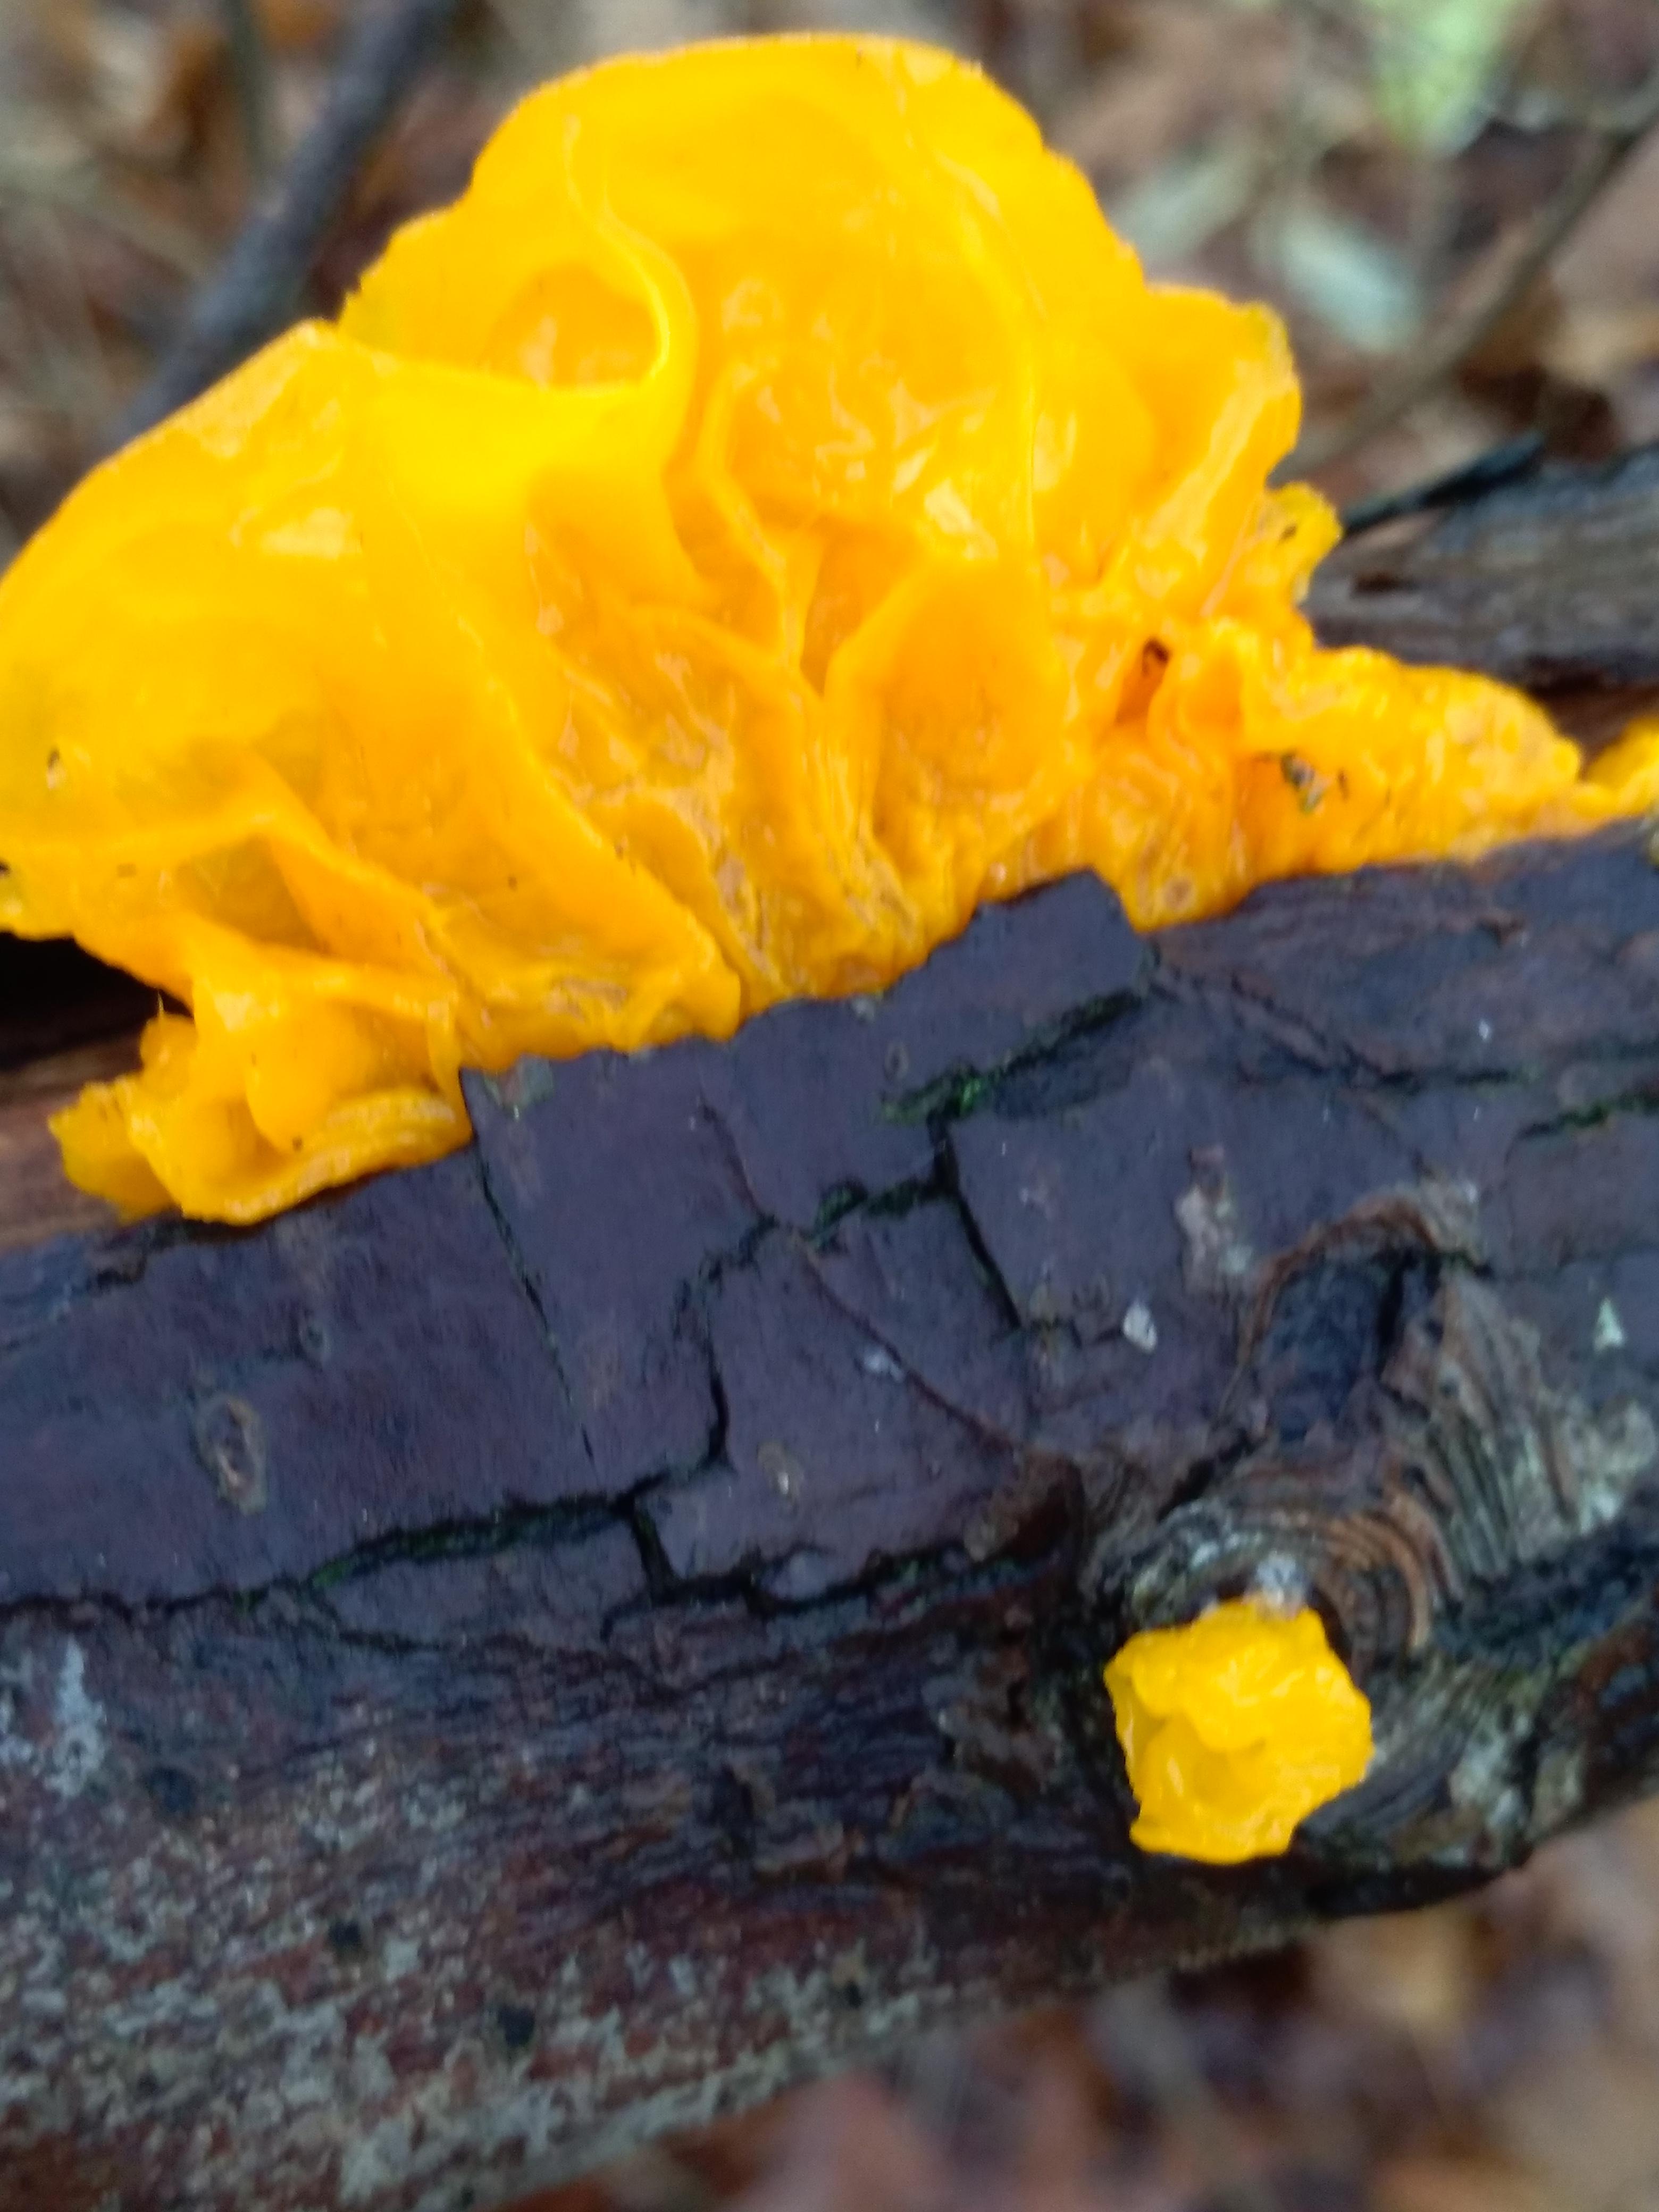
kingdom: Fungi
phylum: Basidiomycota
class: Tremellomycetes
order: Tremellales
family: Tremellaceae
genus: Tremella
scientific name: Tremella mesenterica
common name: gul bævresvamp
